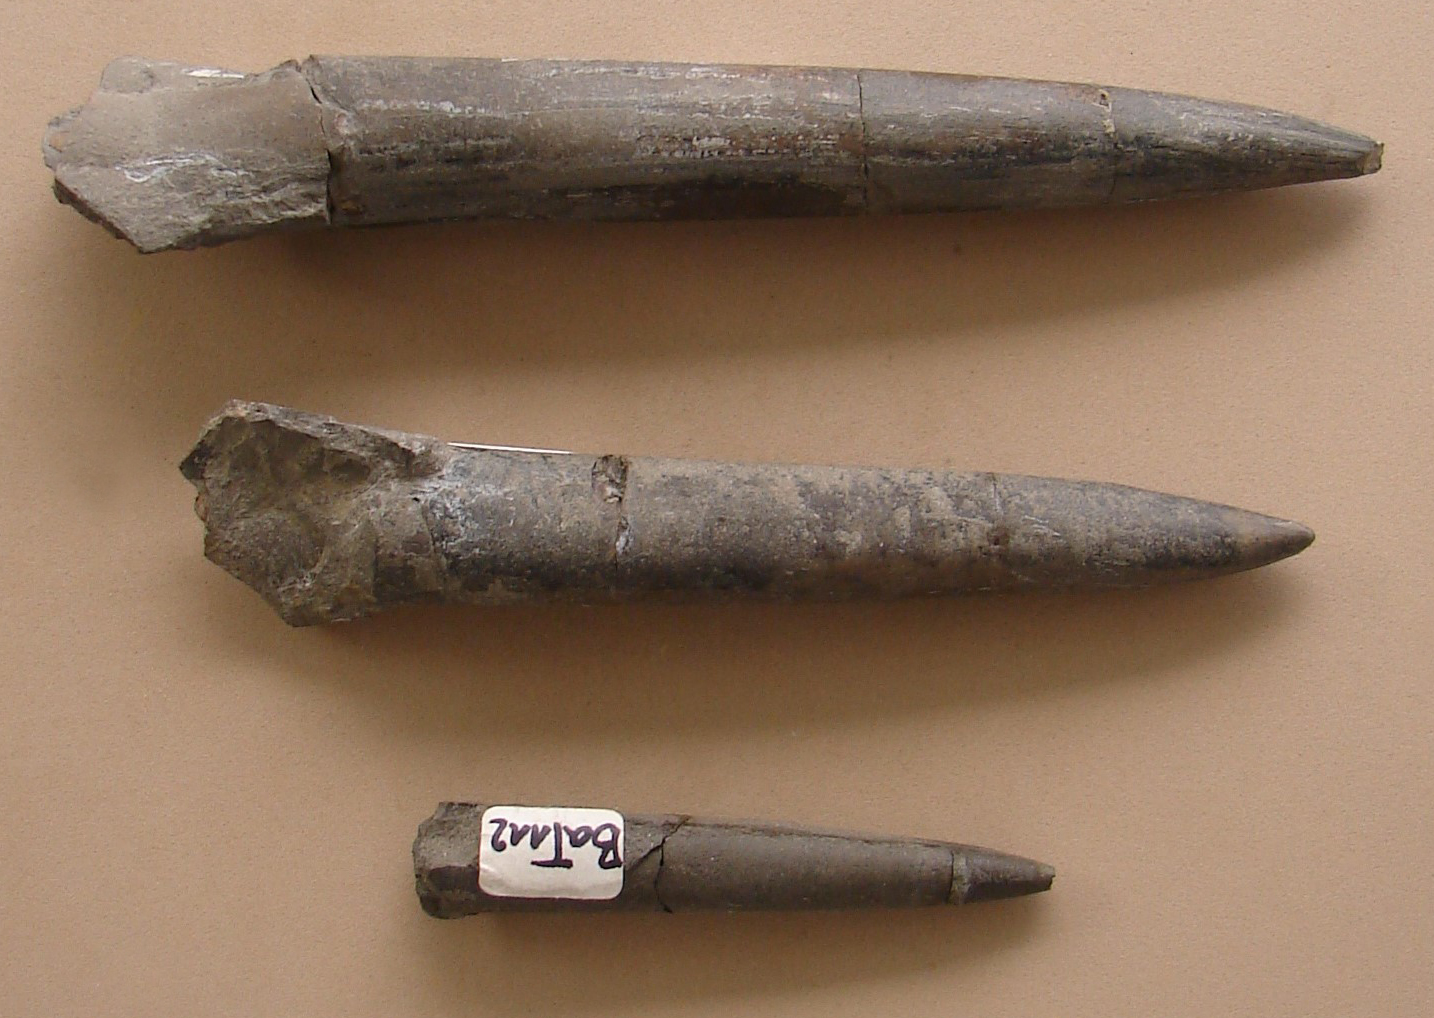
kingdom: Animalia
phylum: Mollusca
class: Cephalopoda
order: Belemnitida
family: Megateuthididae
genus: Acrocoelites
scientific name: Acrocoelites
